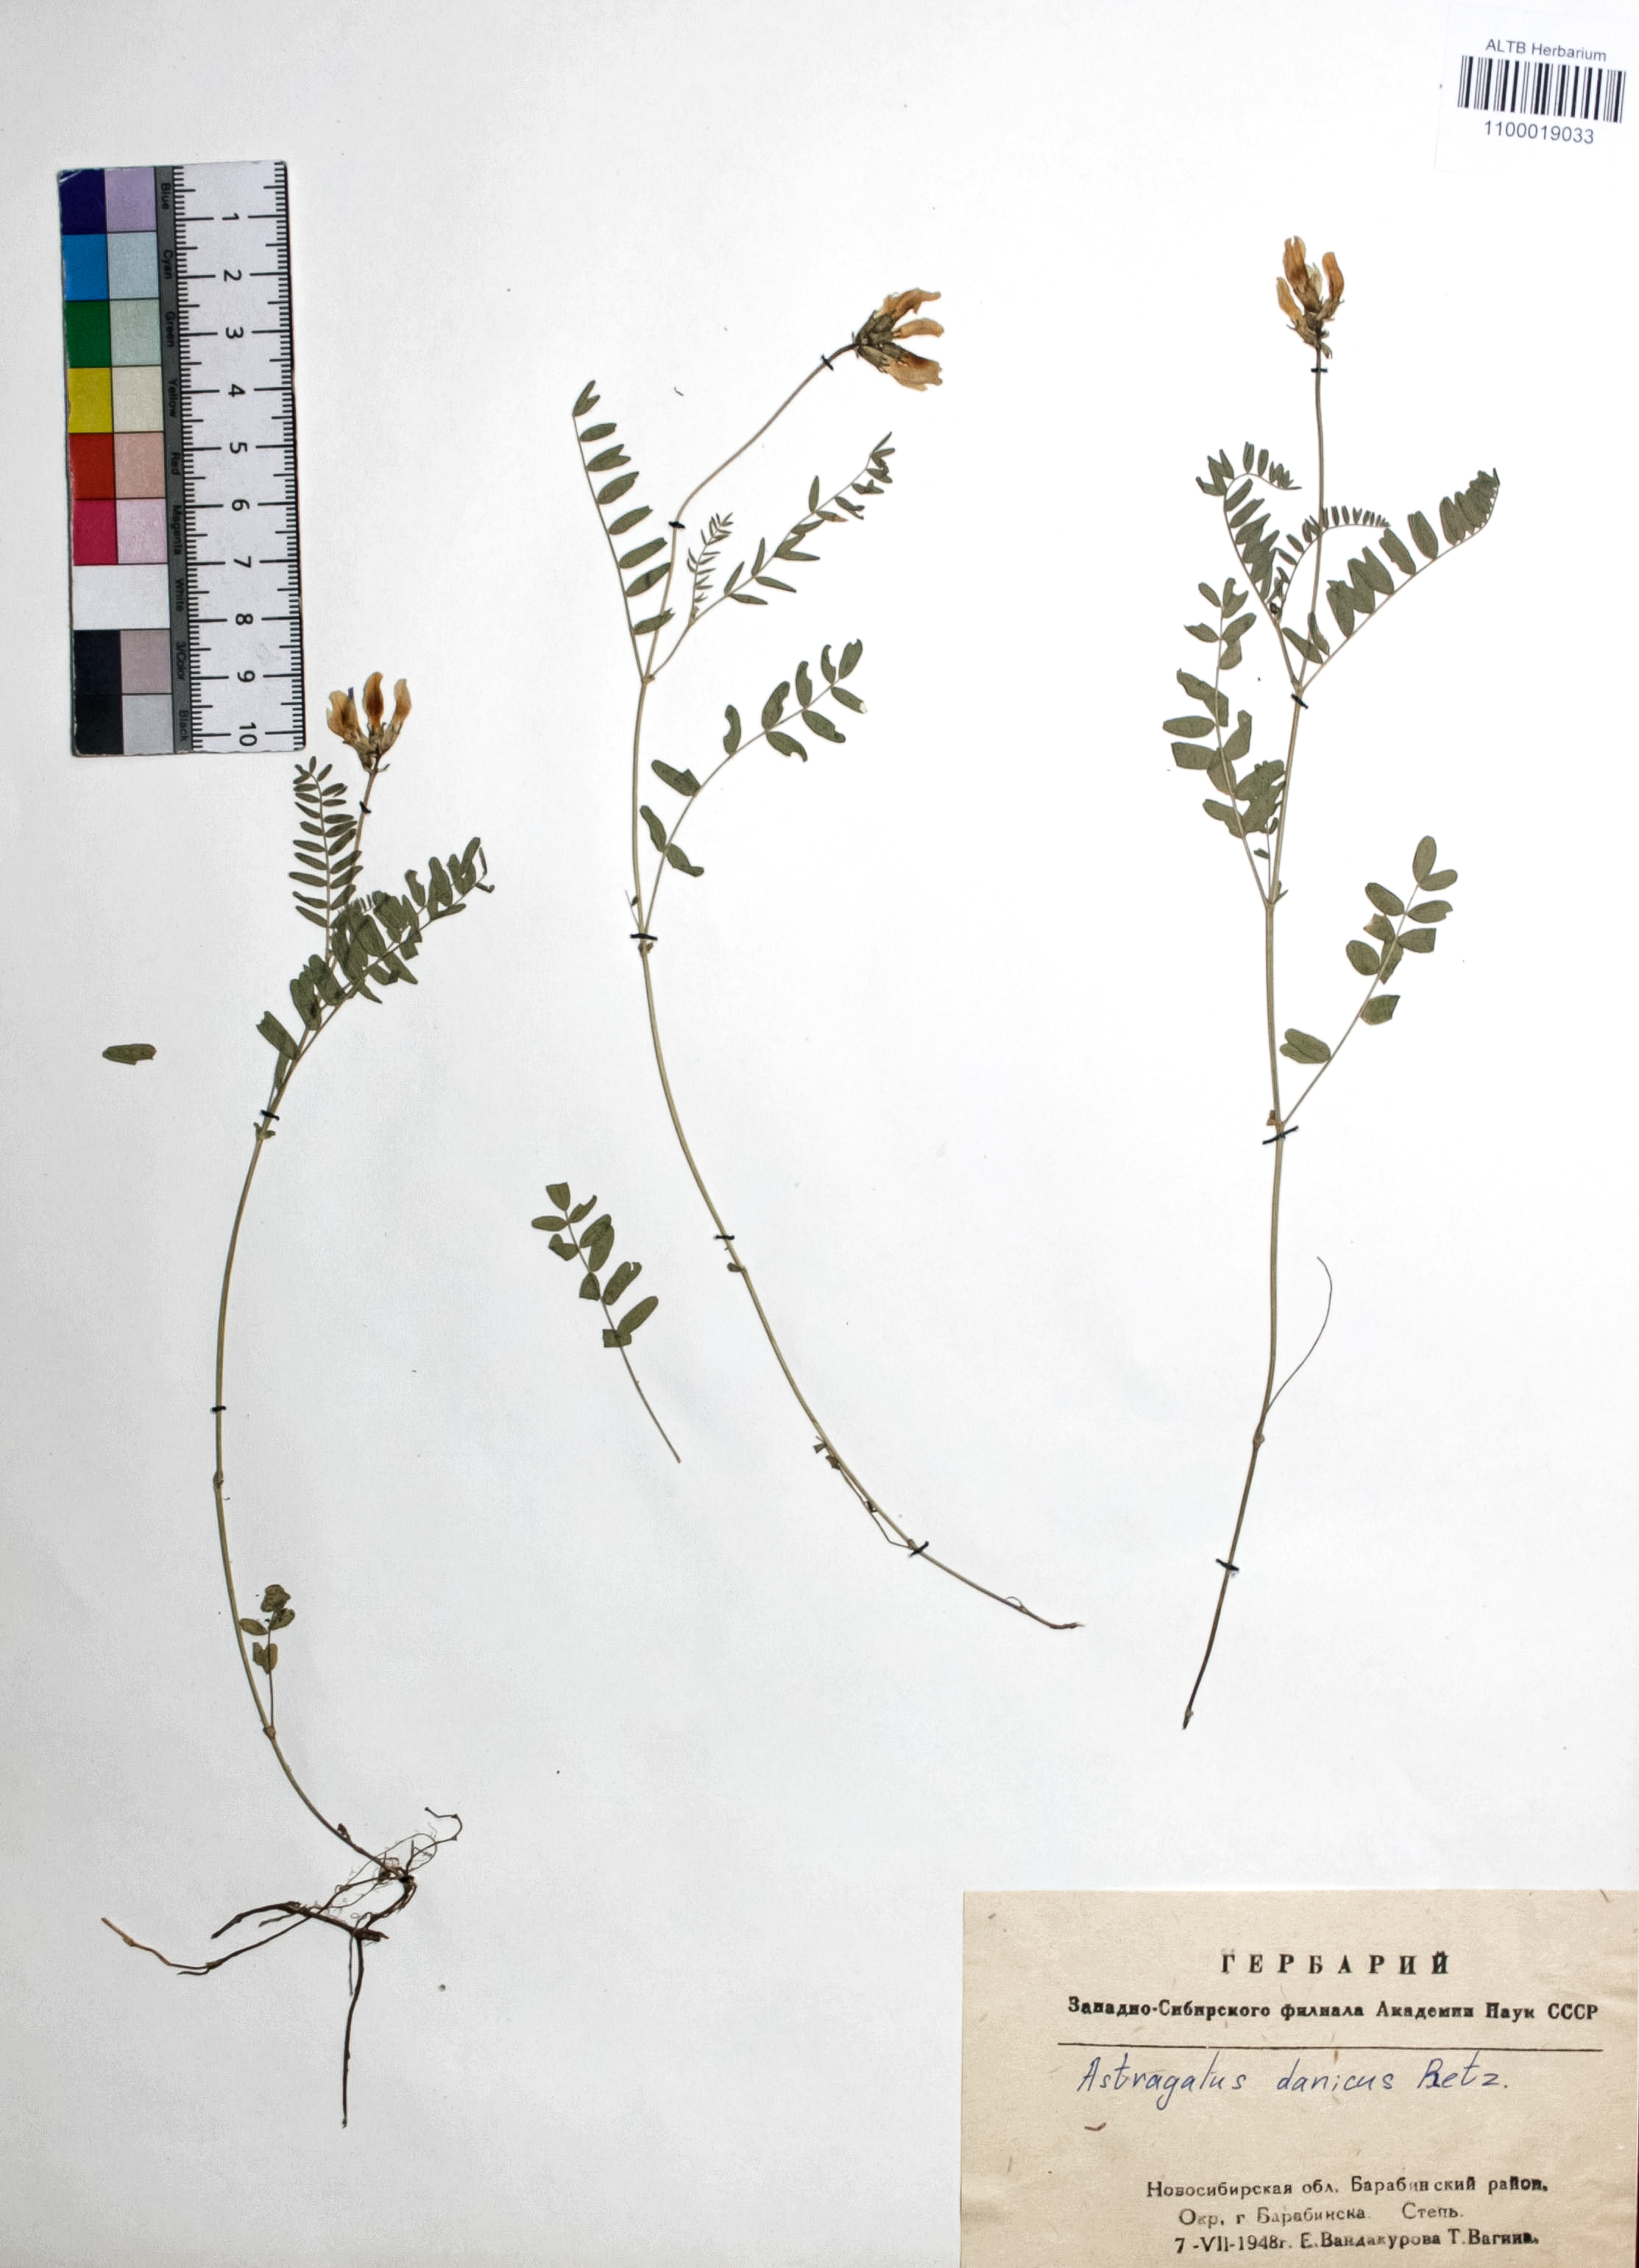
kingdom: Plantae
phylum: Tracheophyta
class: Magnoliopsida
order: Fabales
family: Fabaceae
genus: Astragalus
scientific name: Astragalus danicus
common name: Purple milk-vetch
